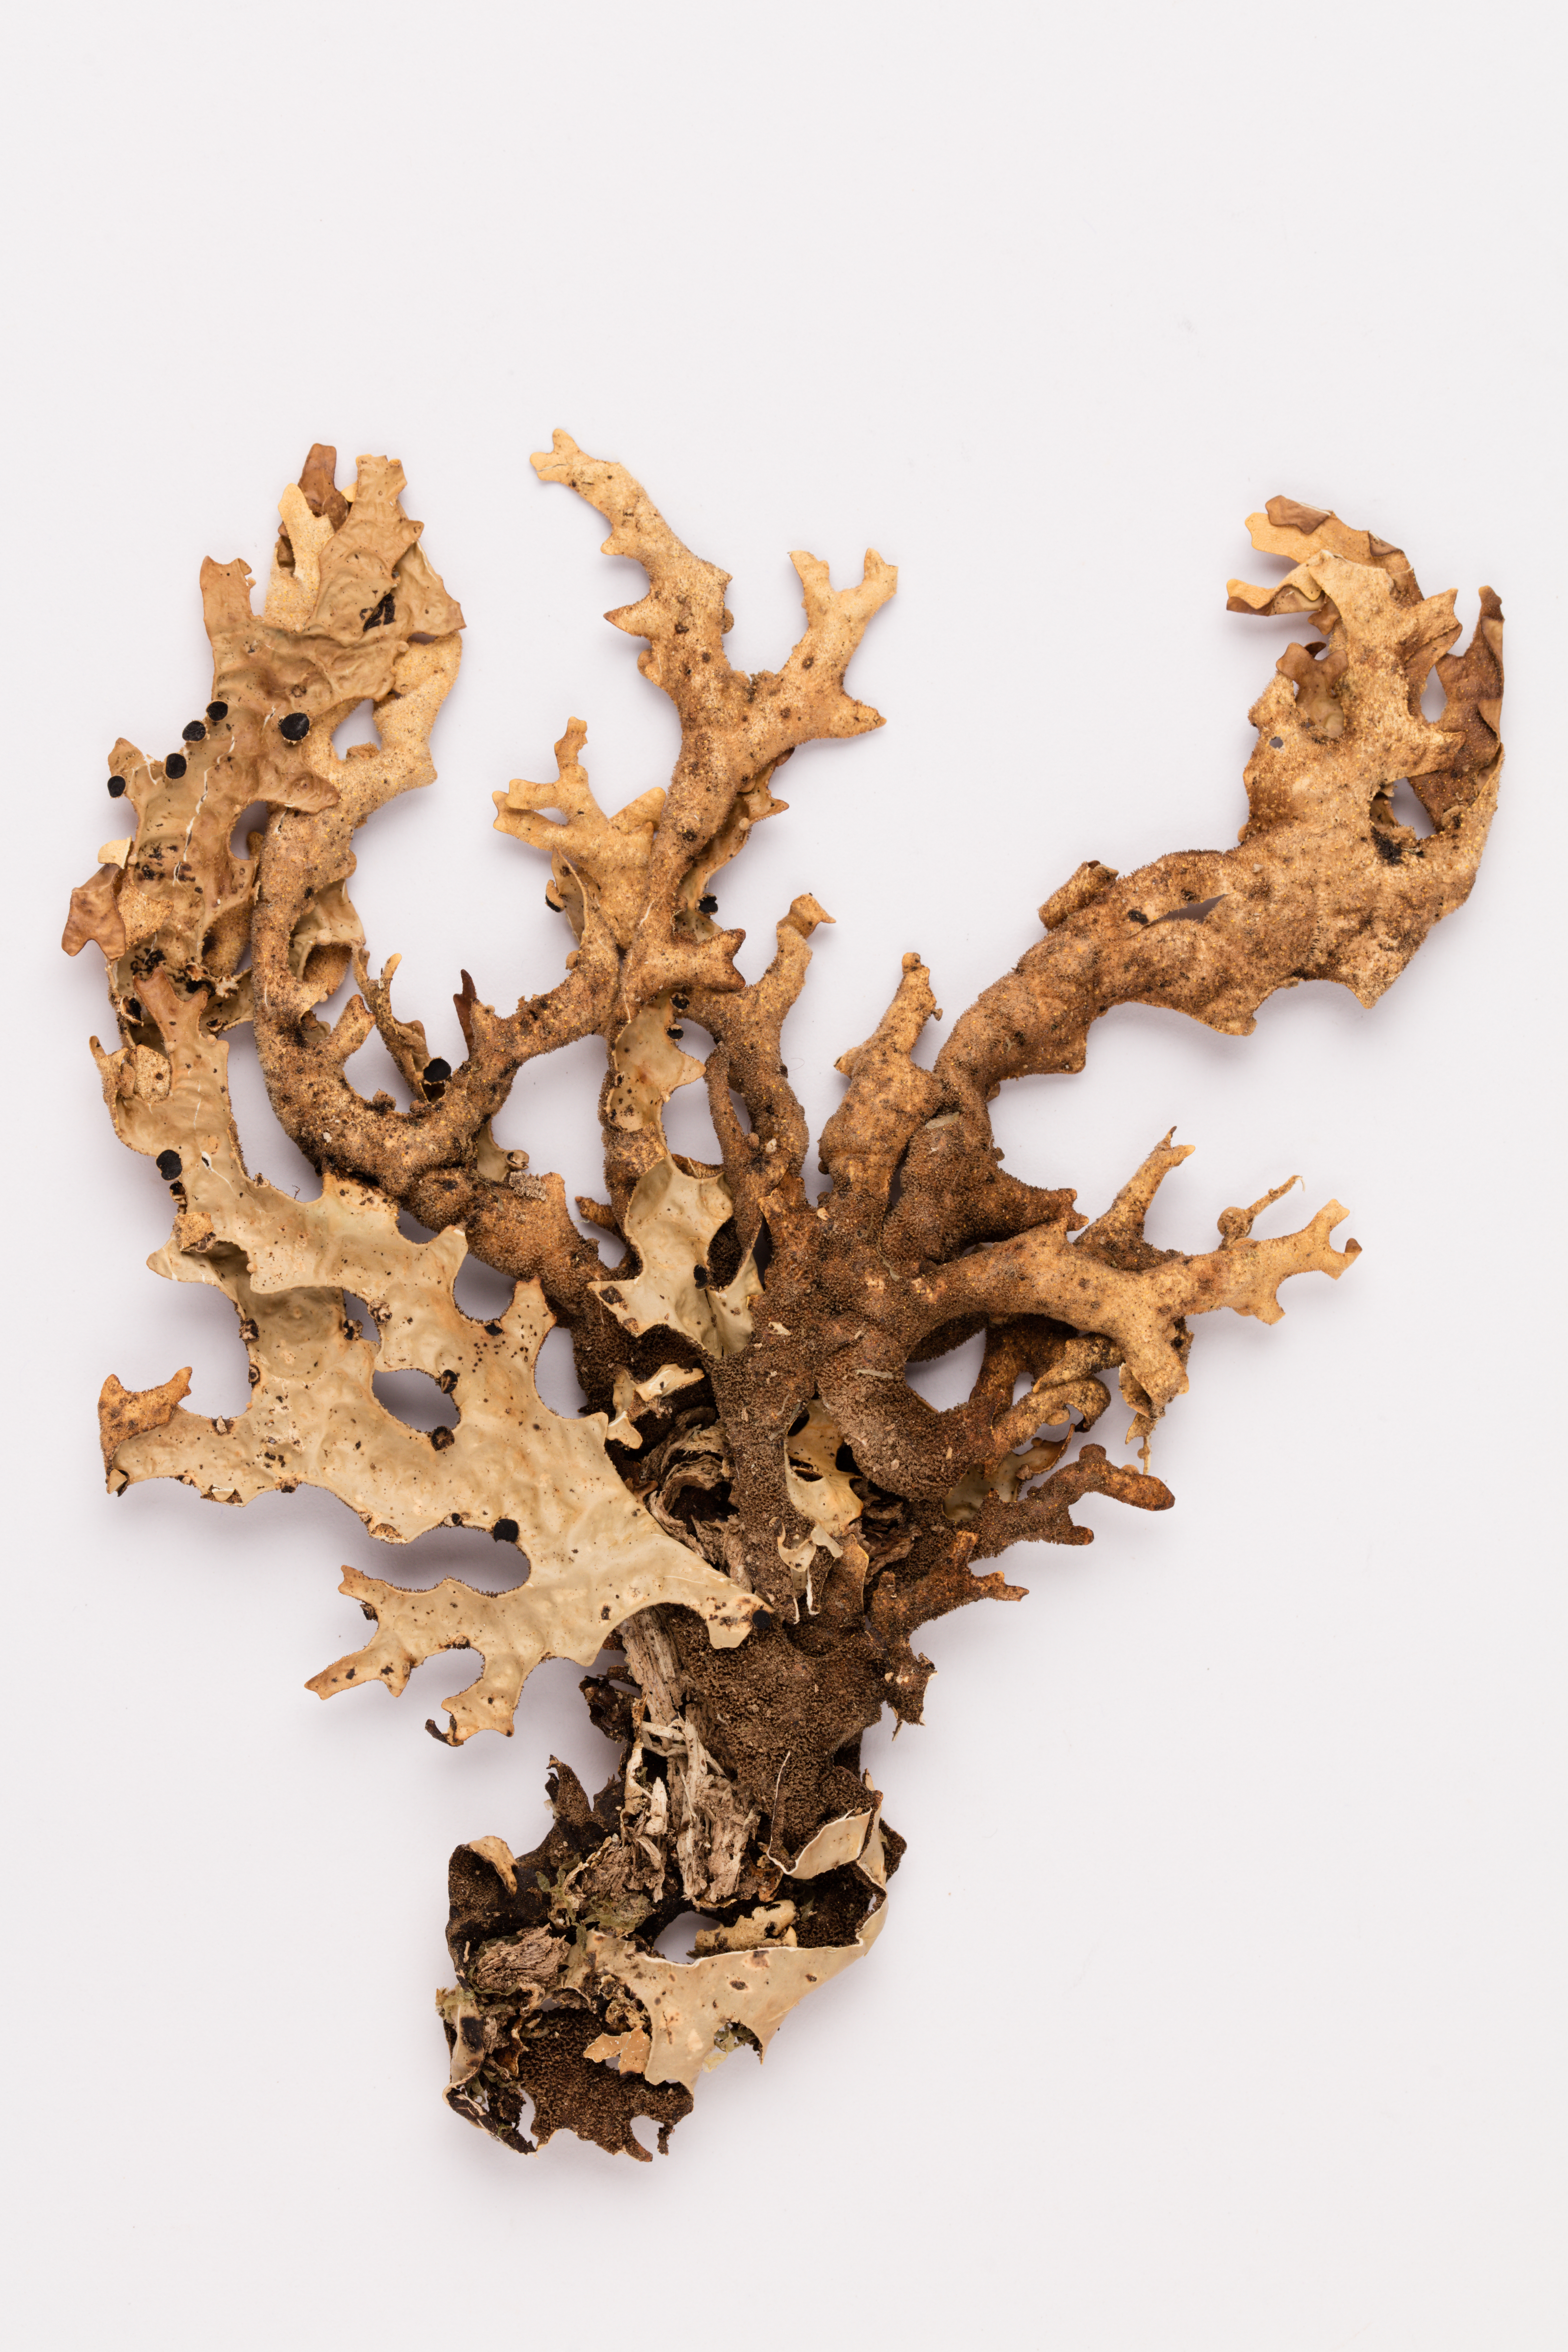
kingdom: Fungi
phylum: Ascomycota
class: Lecanoromycetes
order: Peltigerales
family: Lobariaceae
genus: Pseudocyphellaria
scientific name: Pseudocyphellaria carpoloma
